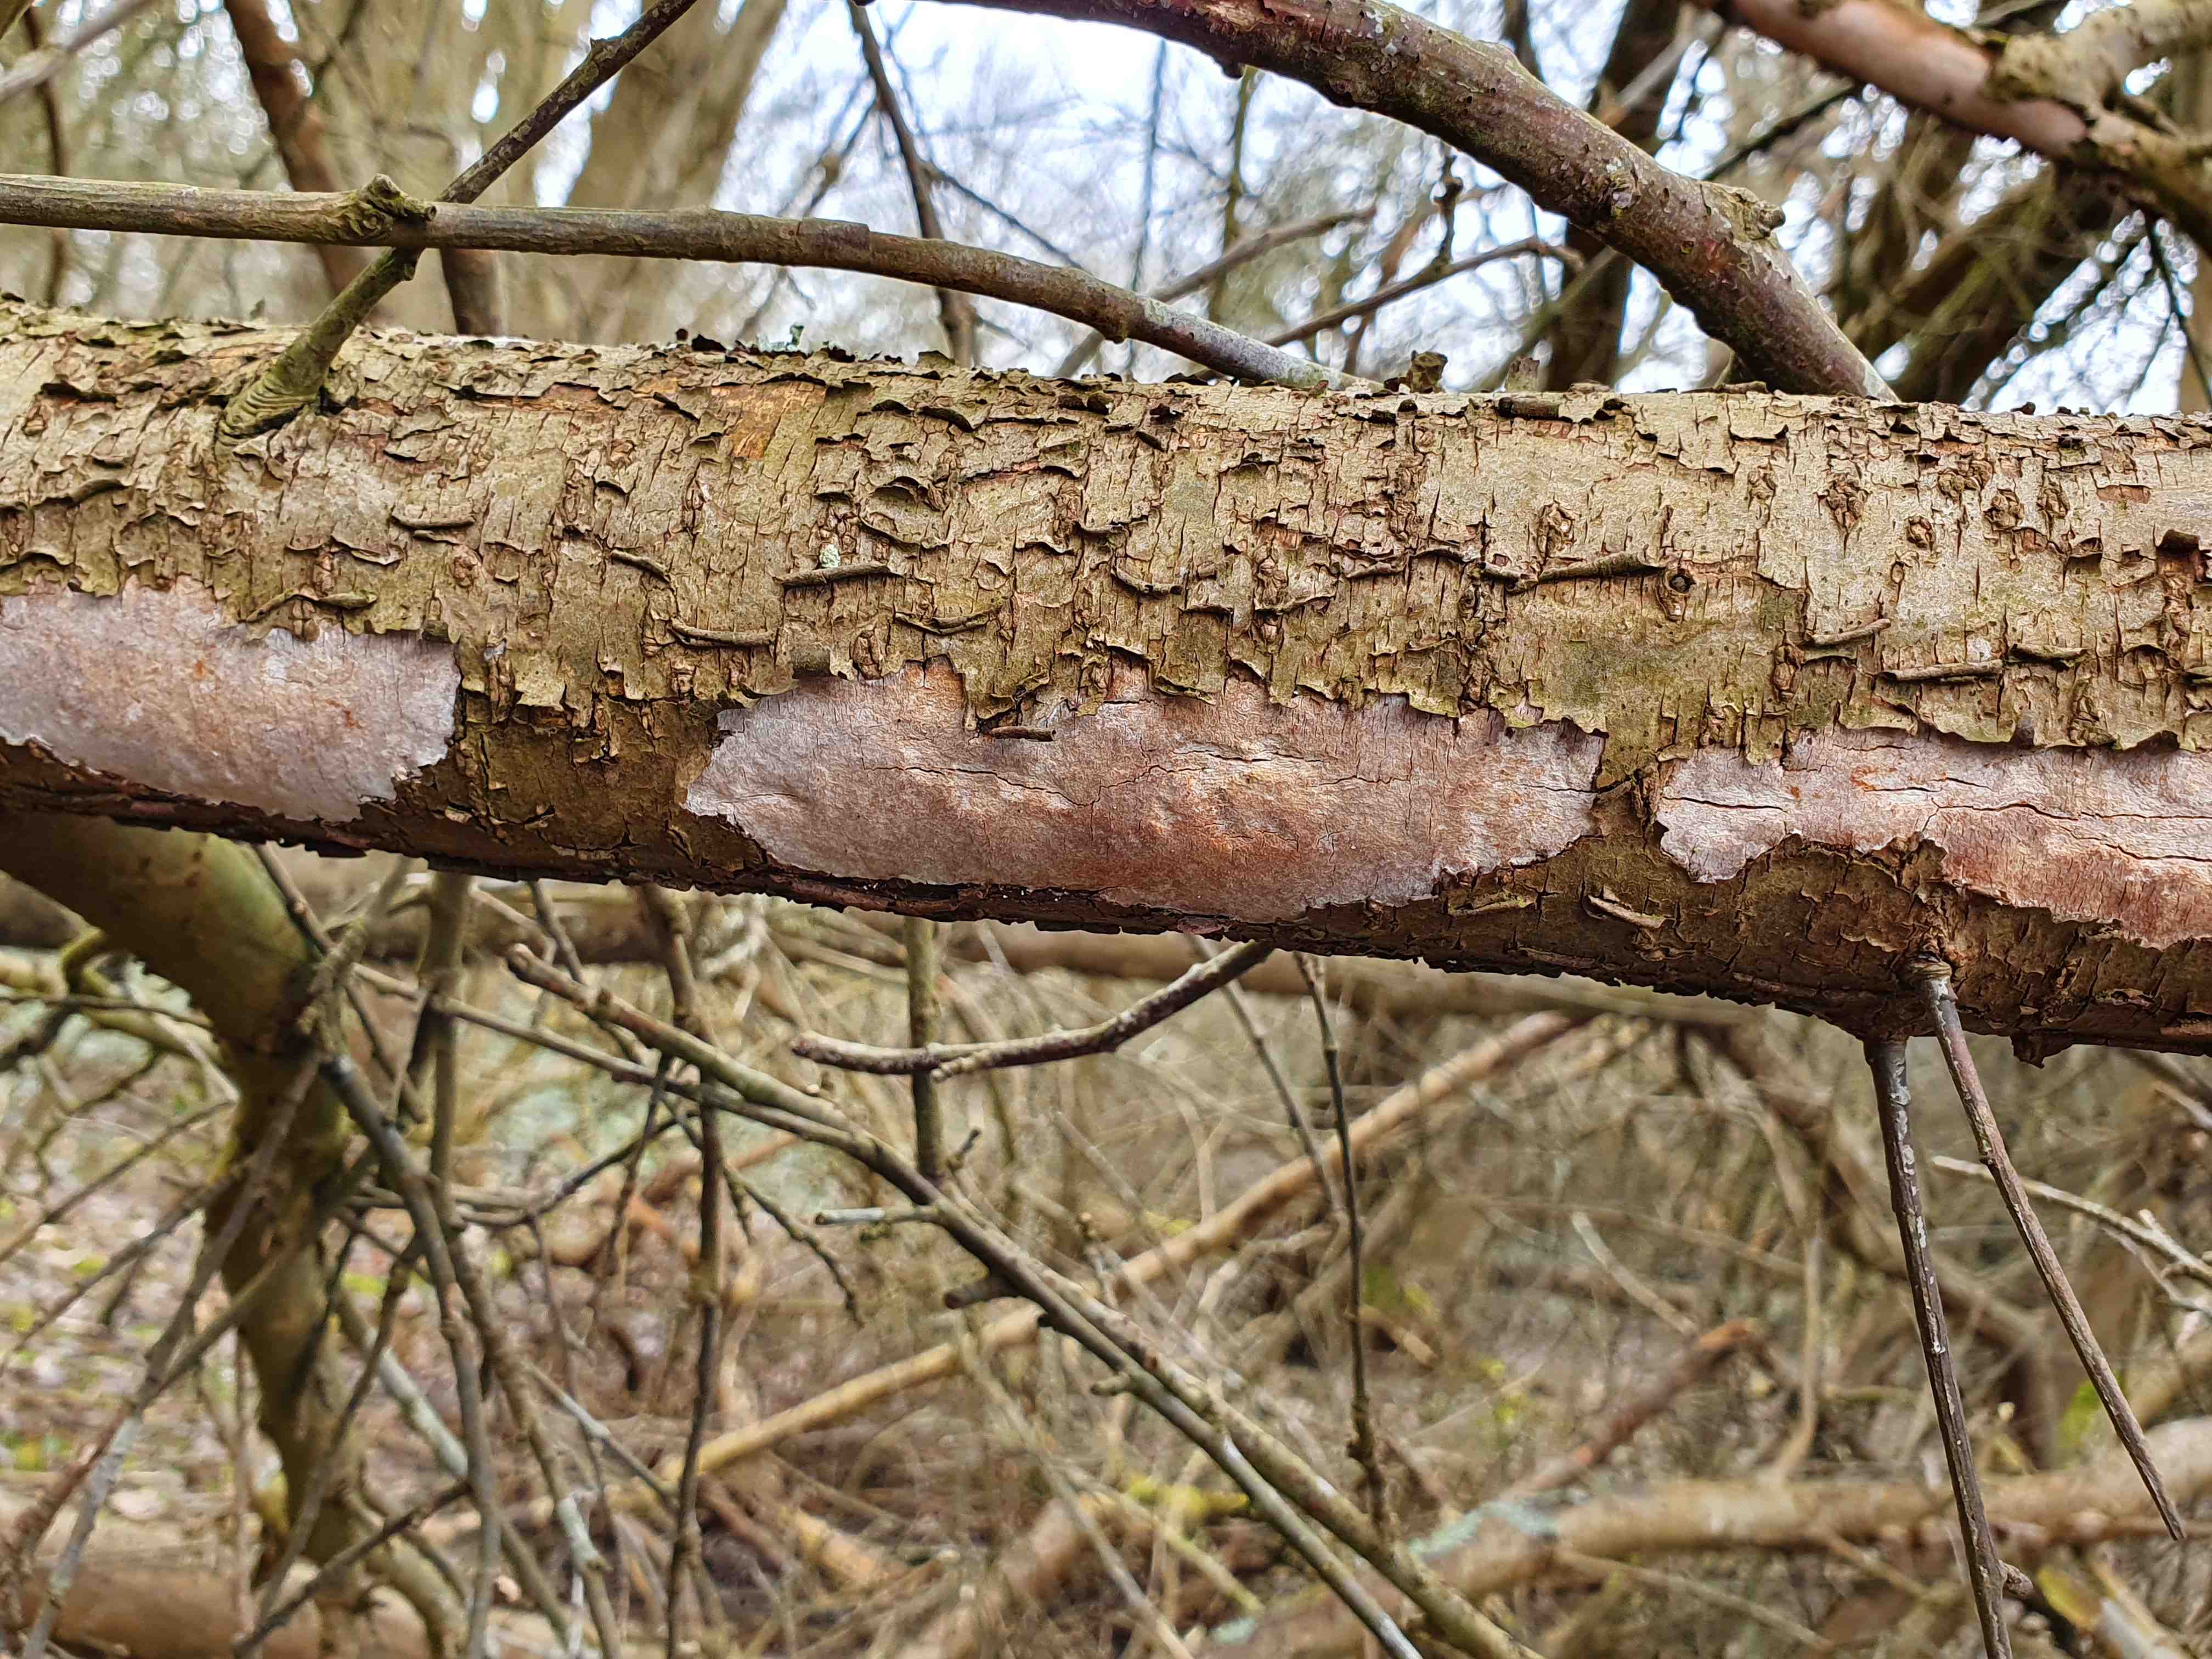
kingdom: Fungi
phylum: Basidiomycota
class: Agaricomycetes
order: Corticiales
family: Vuilleminiaceae
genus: Vuilleminia
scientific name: Vuilleminia cystidiata
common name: tjørne-barksprænger
